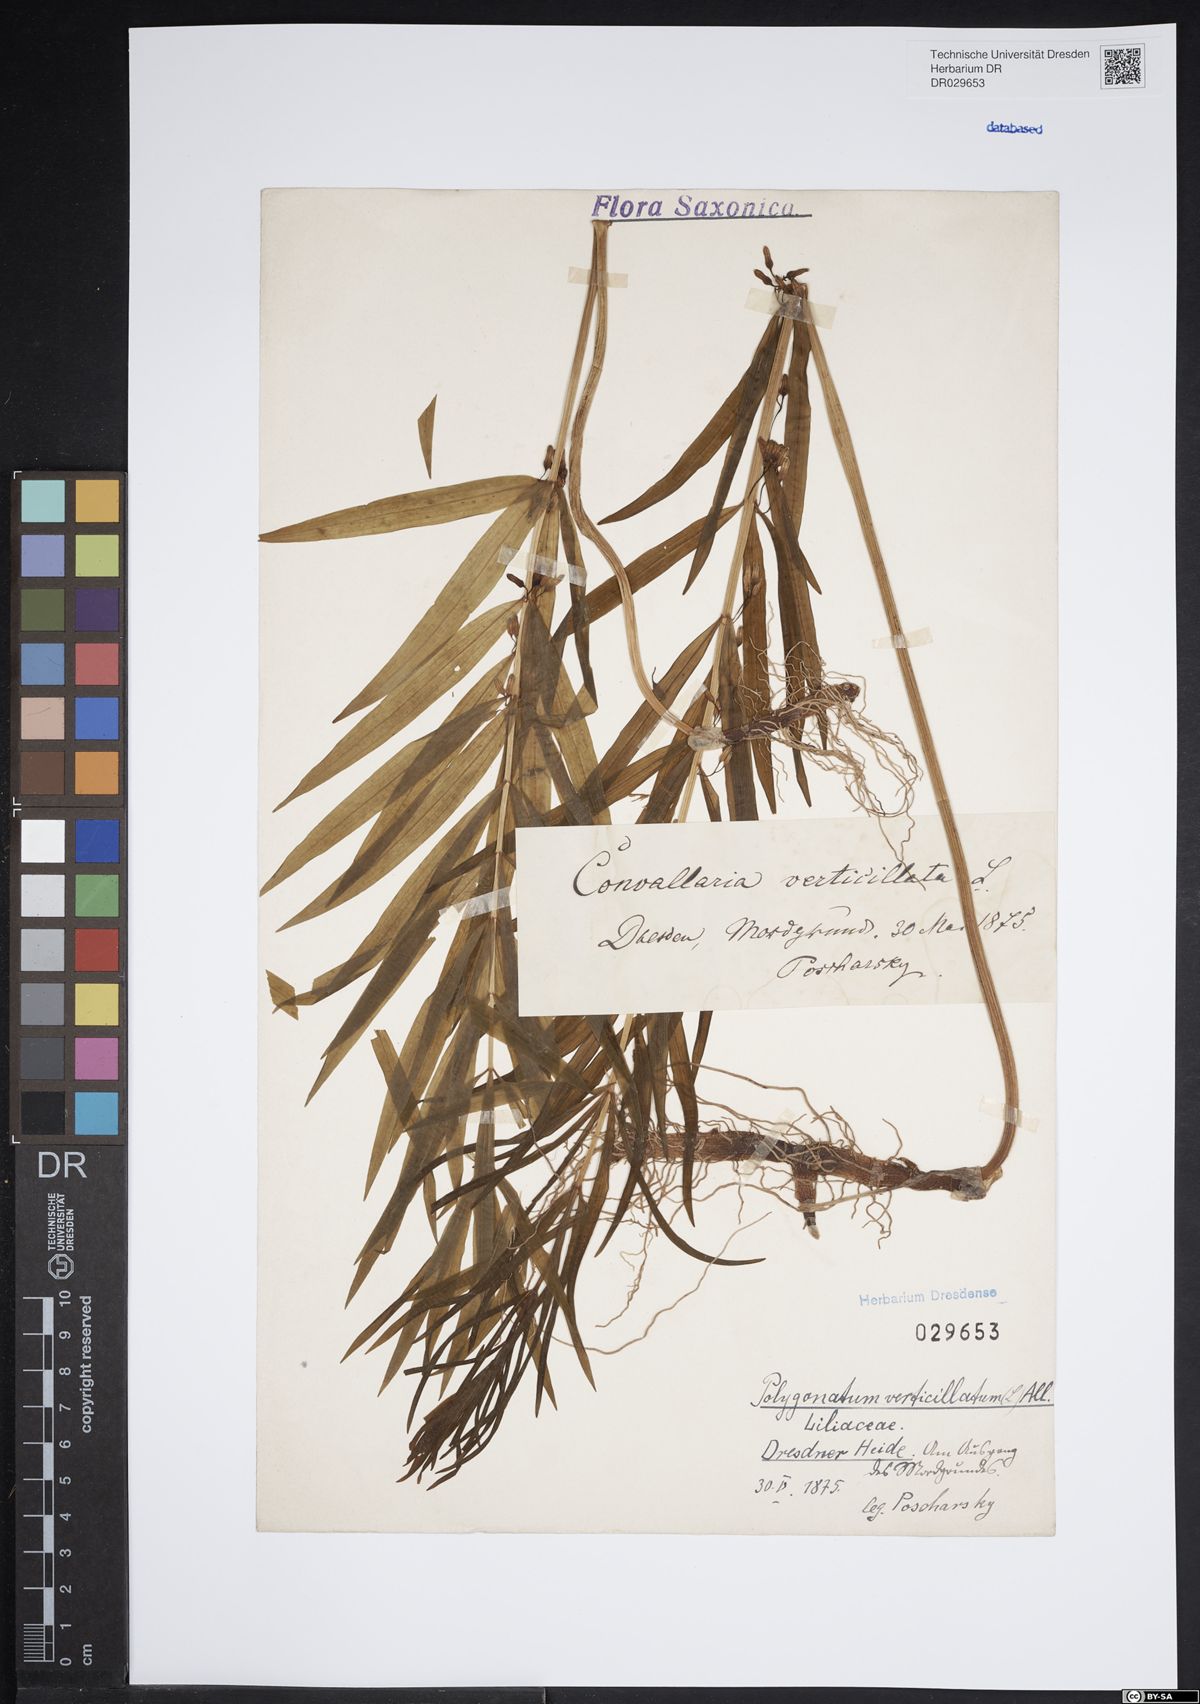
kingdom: Plantae
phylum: Tracheophyta
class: Liliopsida
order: Asparagales
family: Asparagaceae
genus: Polygonatum
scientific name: Polygonatum verticillatum
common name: Whorled solomon's-seal
